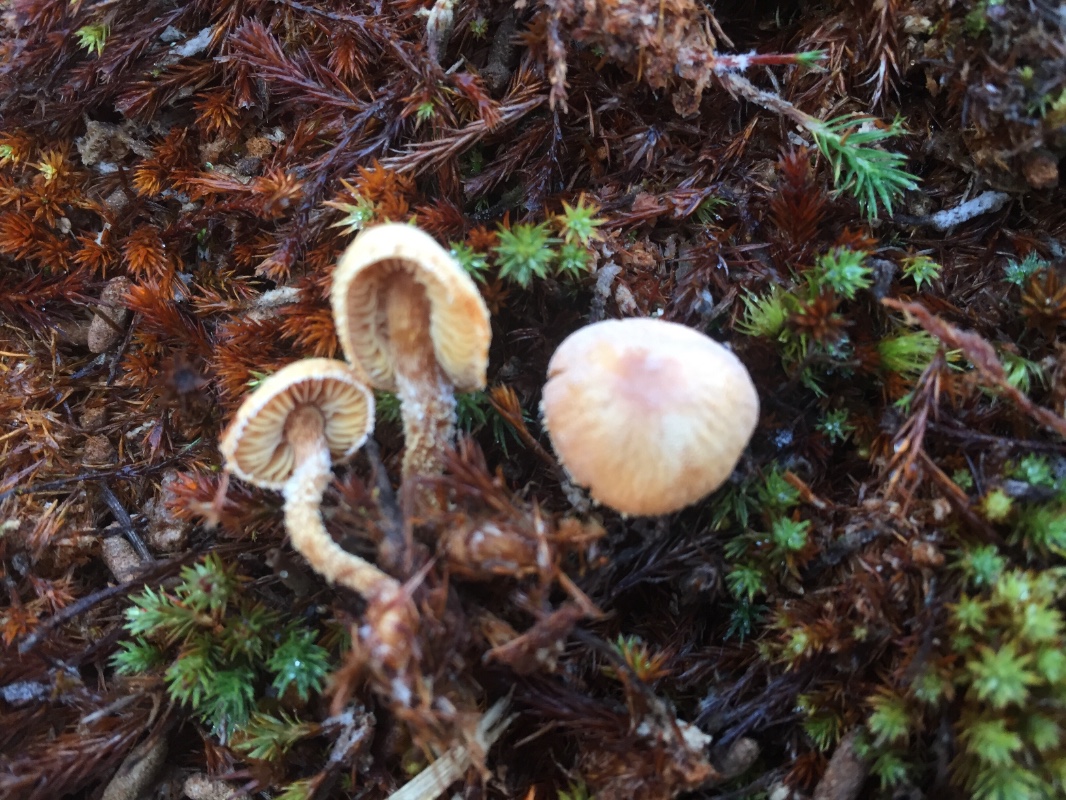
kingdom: Fungi
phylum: Basidiomycota
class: Agaricomycetes
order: Agaricales
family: Tricholomataceae
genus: Cystoderma
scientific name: Cystoderma
